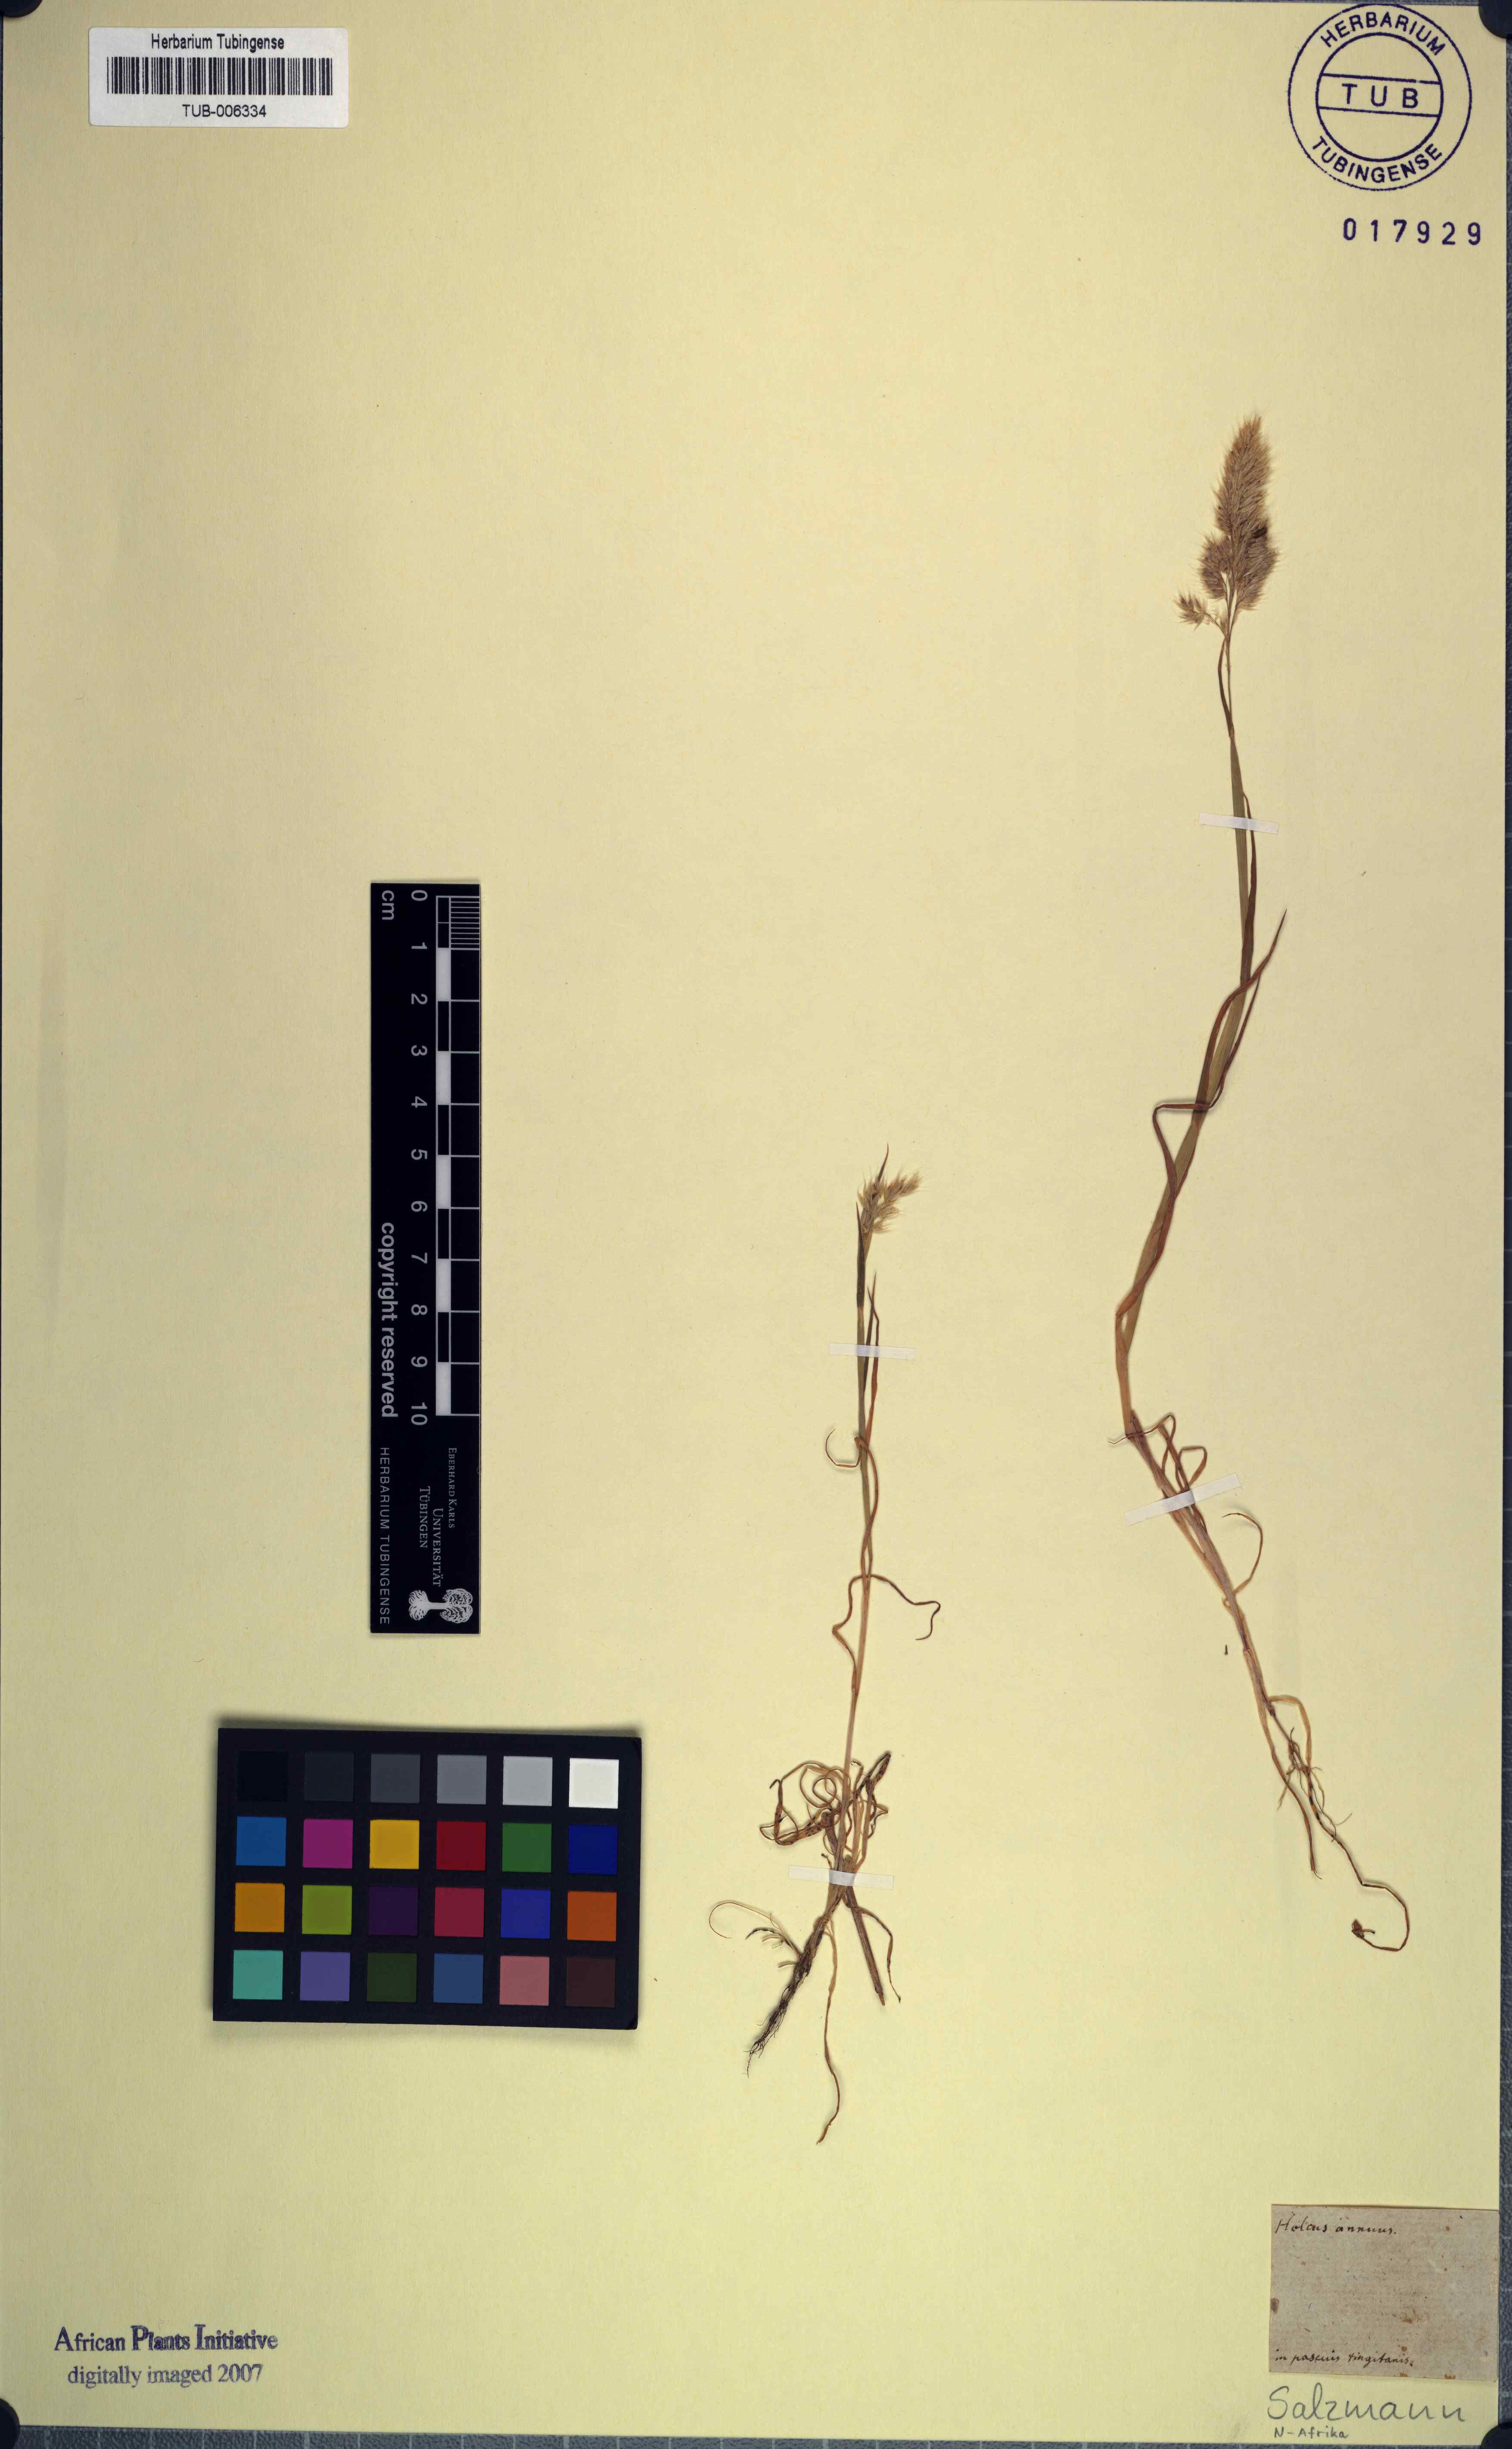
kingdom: Plantae
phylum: Tracheophyta
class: Liliopsida
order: Poales
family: Poaceae
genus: Holcus
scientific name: Holcus annuus
